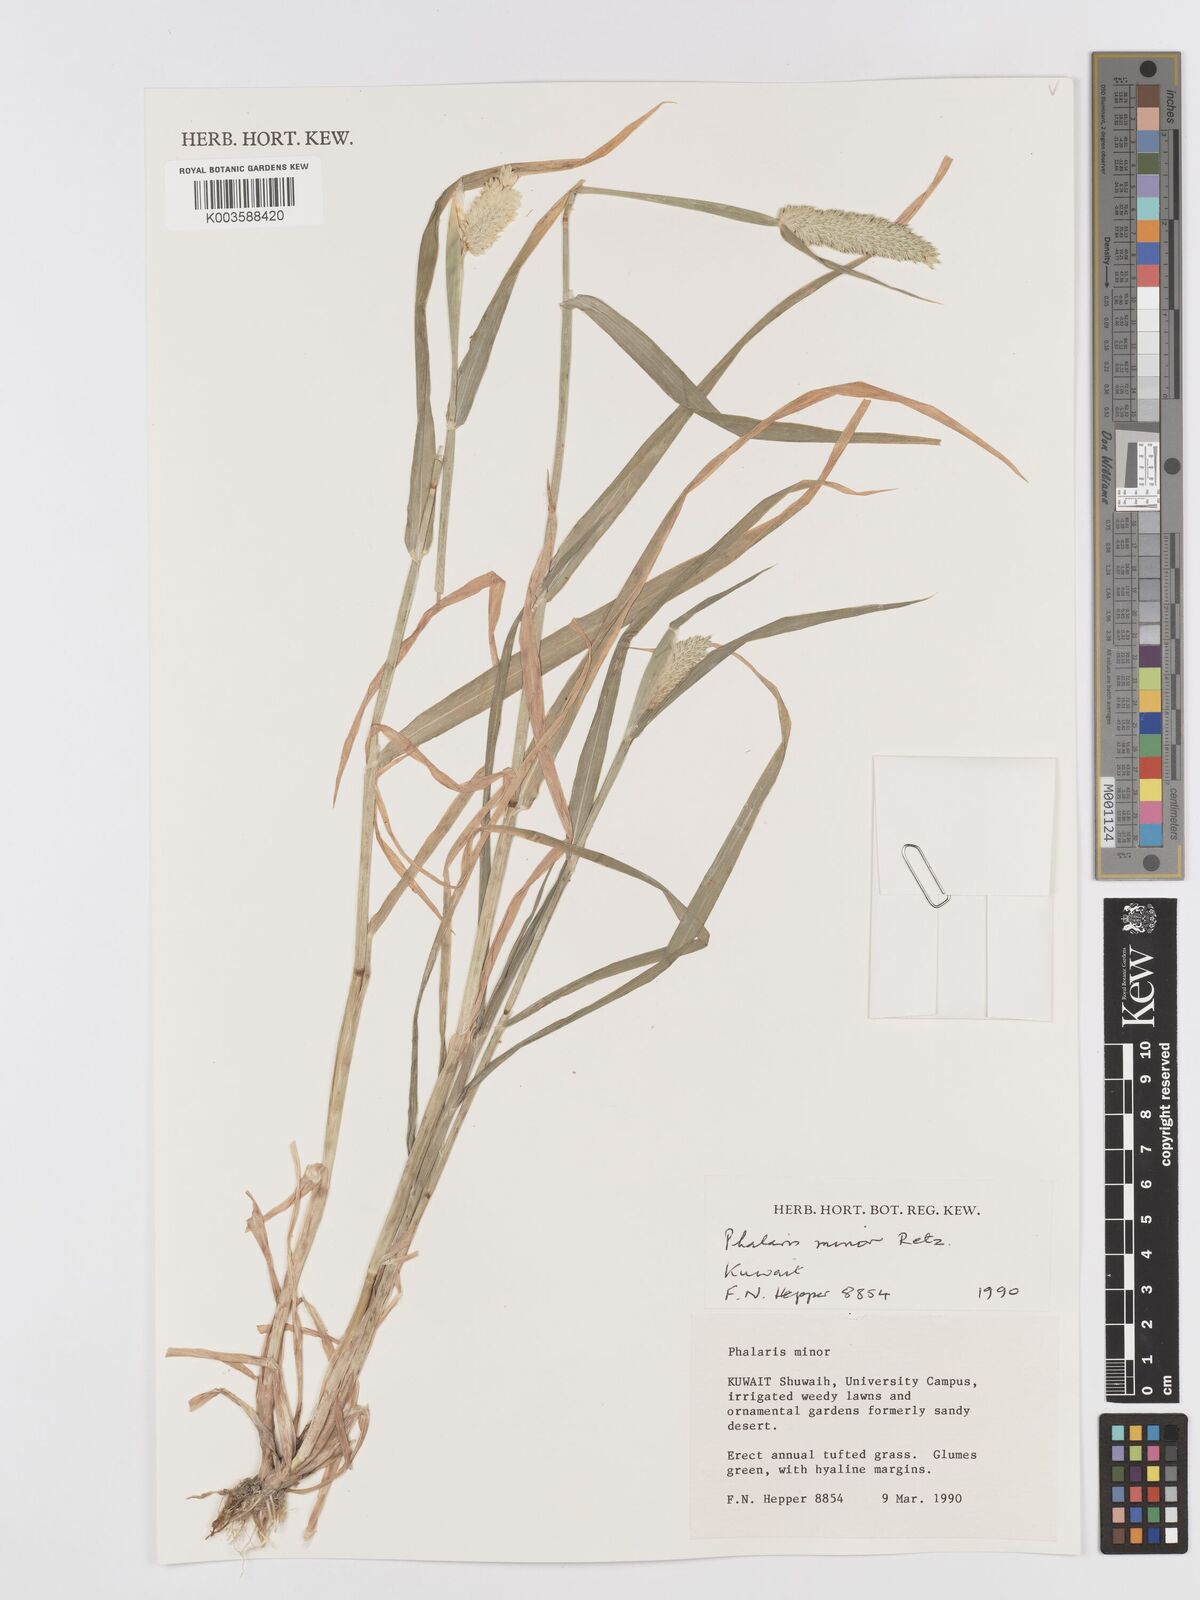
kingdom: Plantae
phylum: Tracheophyta
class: Liliopsida
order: Poales
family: Poaceae
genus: Phalaris
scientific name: Phalaris minor
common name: Littleseed canarygrass
